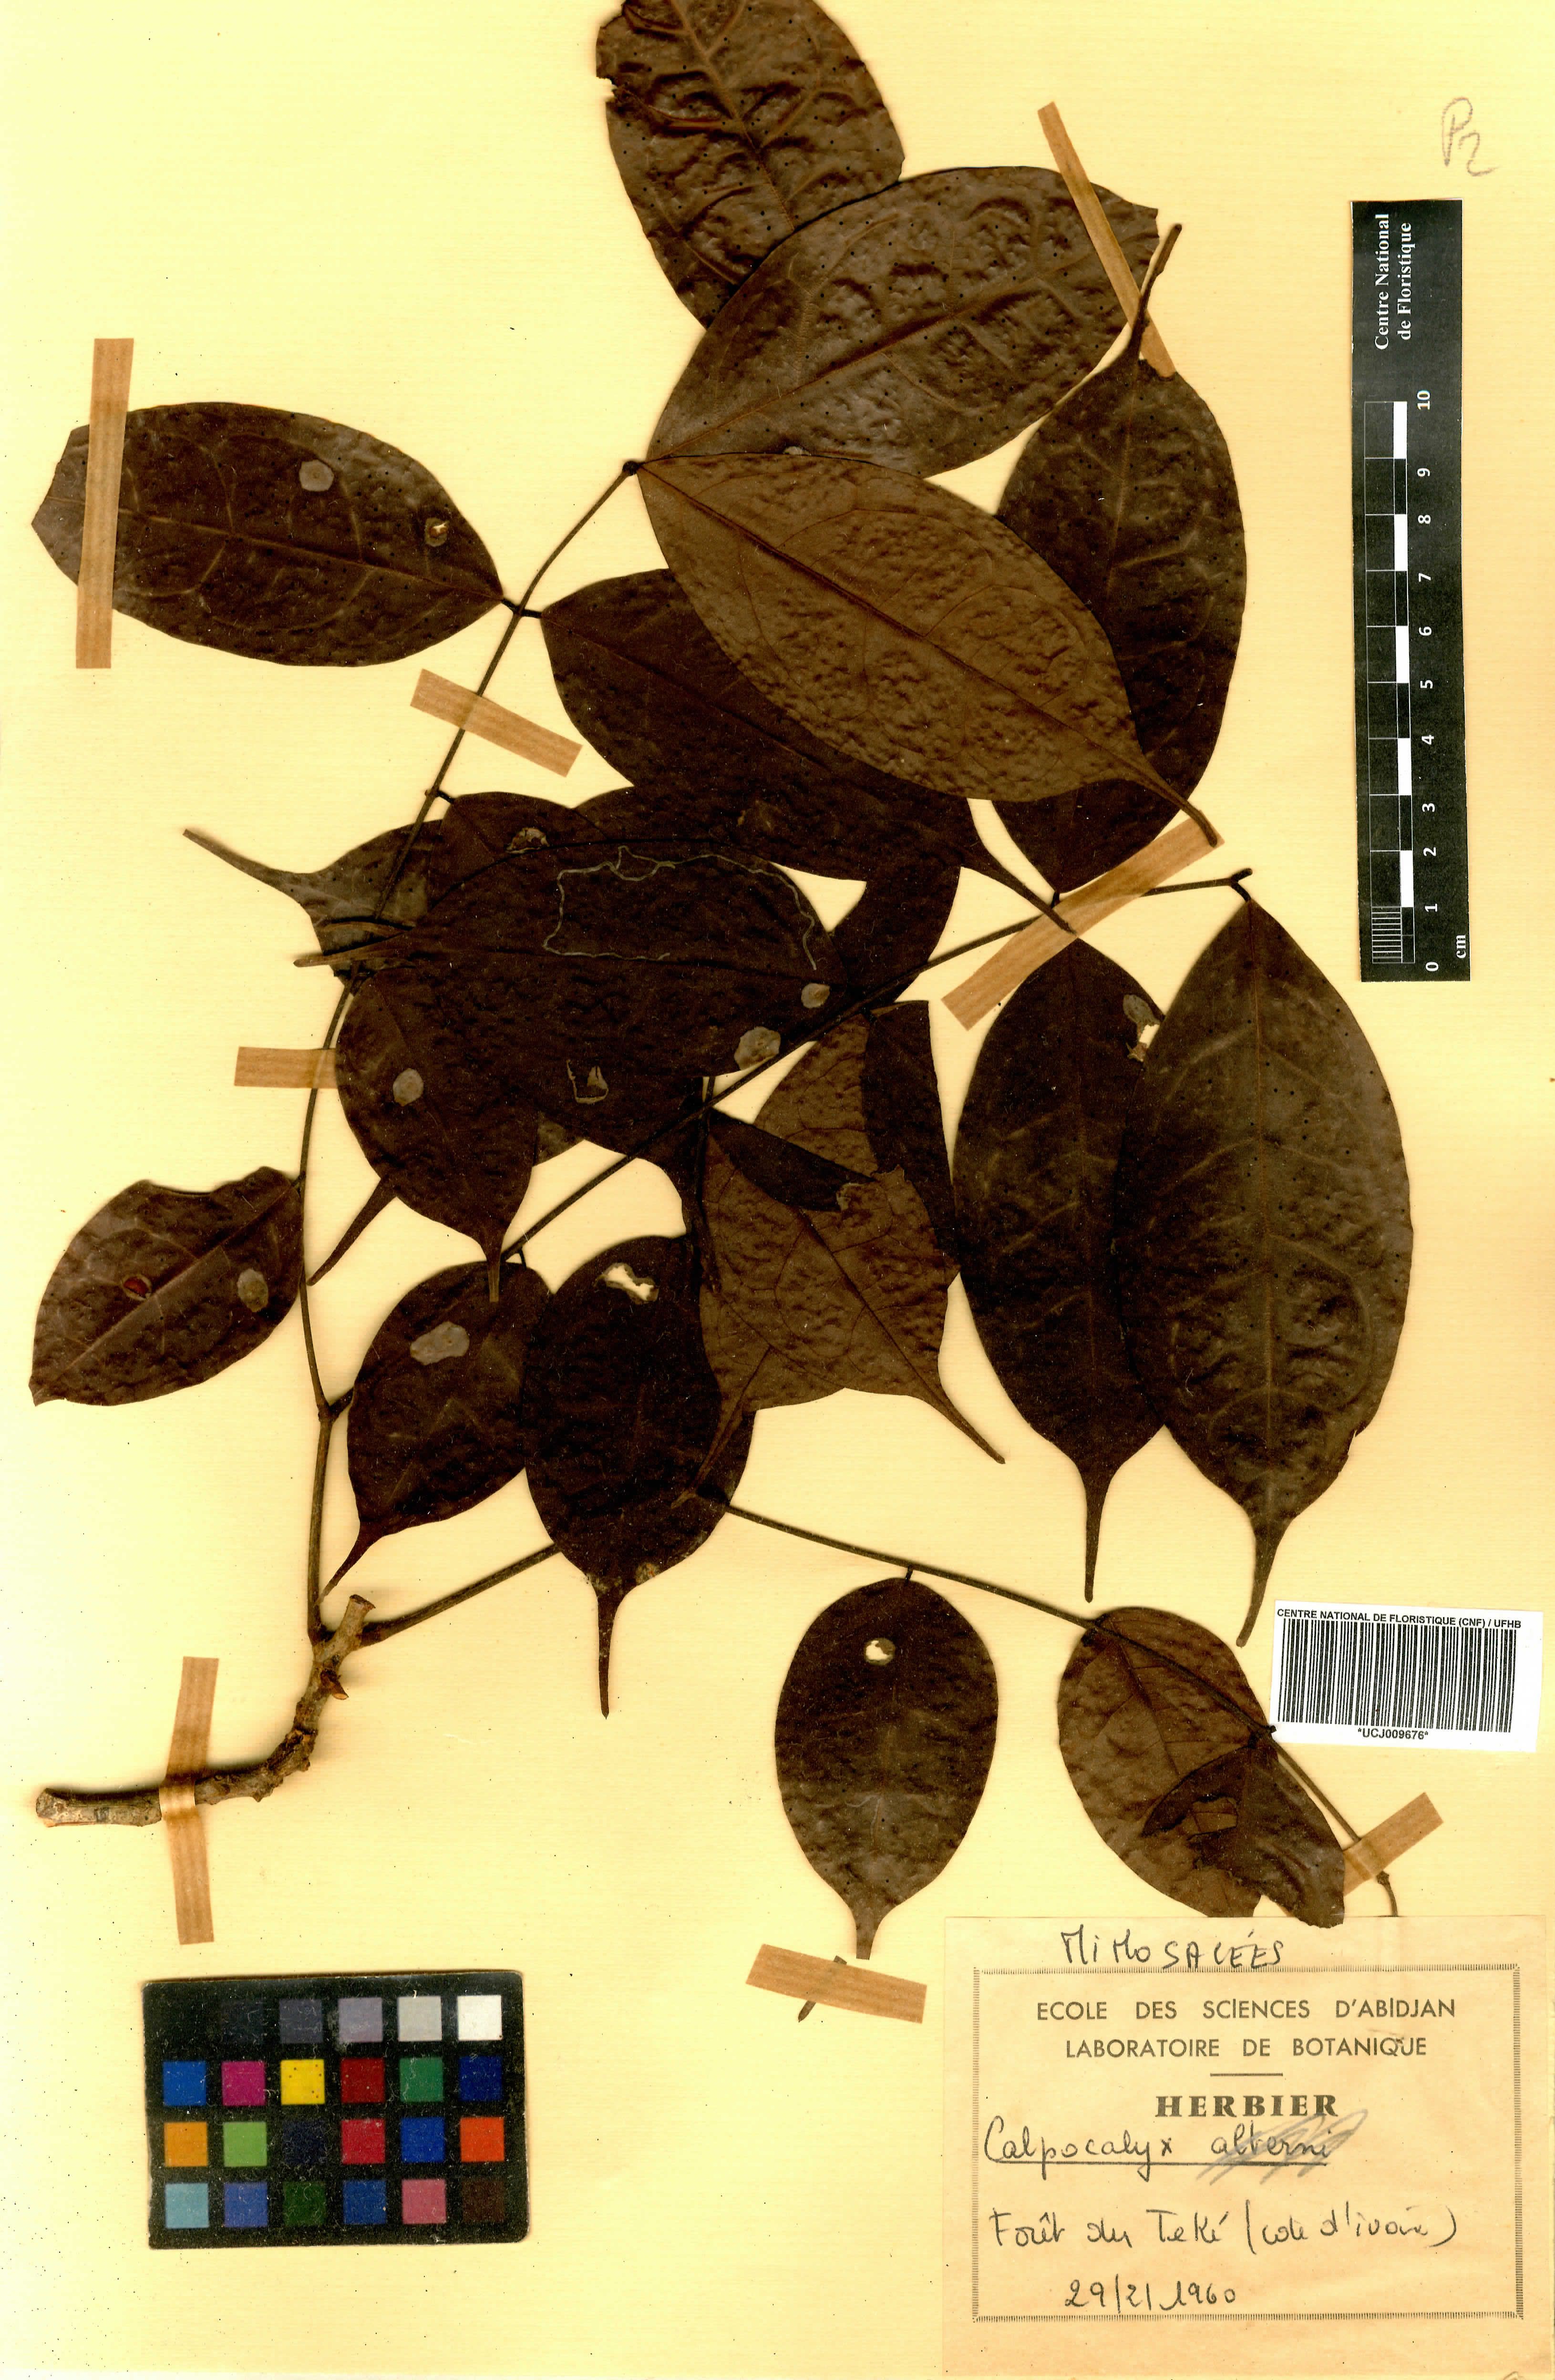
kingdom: Plantae
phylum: Tracheophyta
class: Magnoliopsida
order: Fabales
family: Fabaceae
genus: Calpocalyx
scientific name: Calpocalyx brevibracteatus
